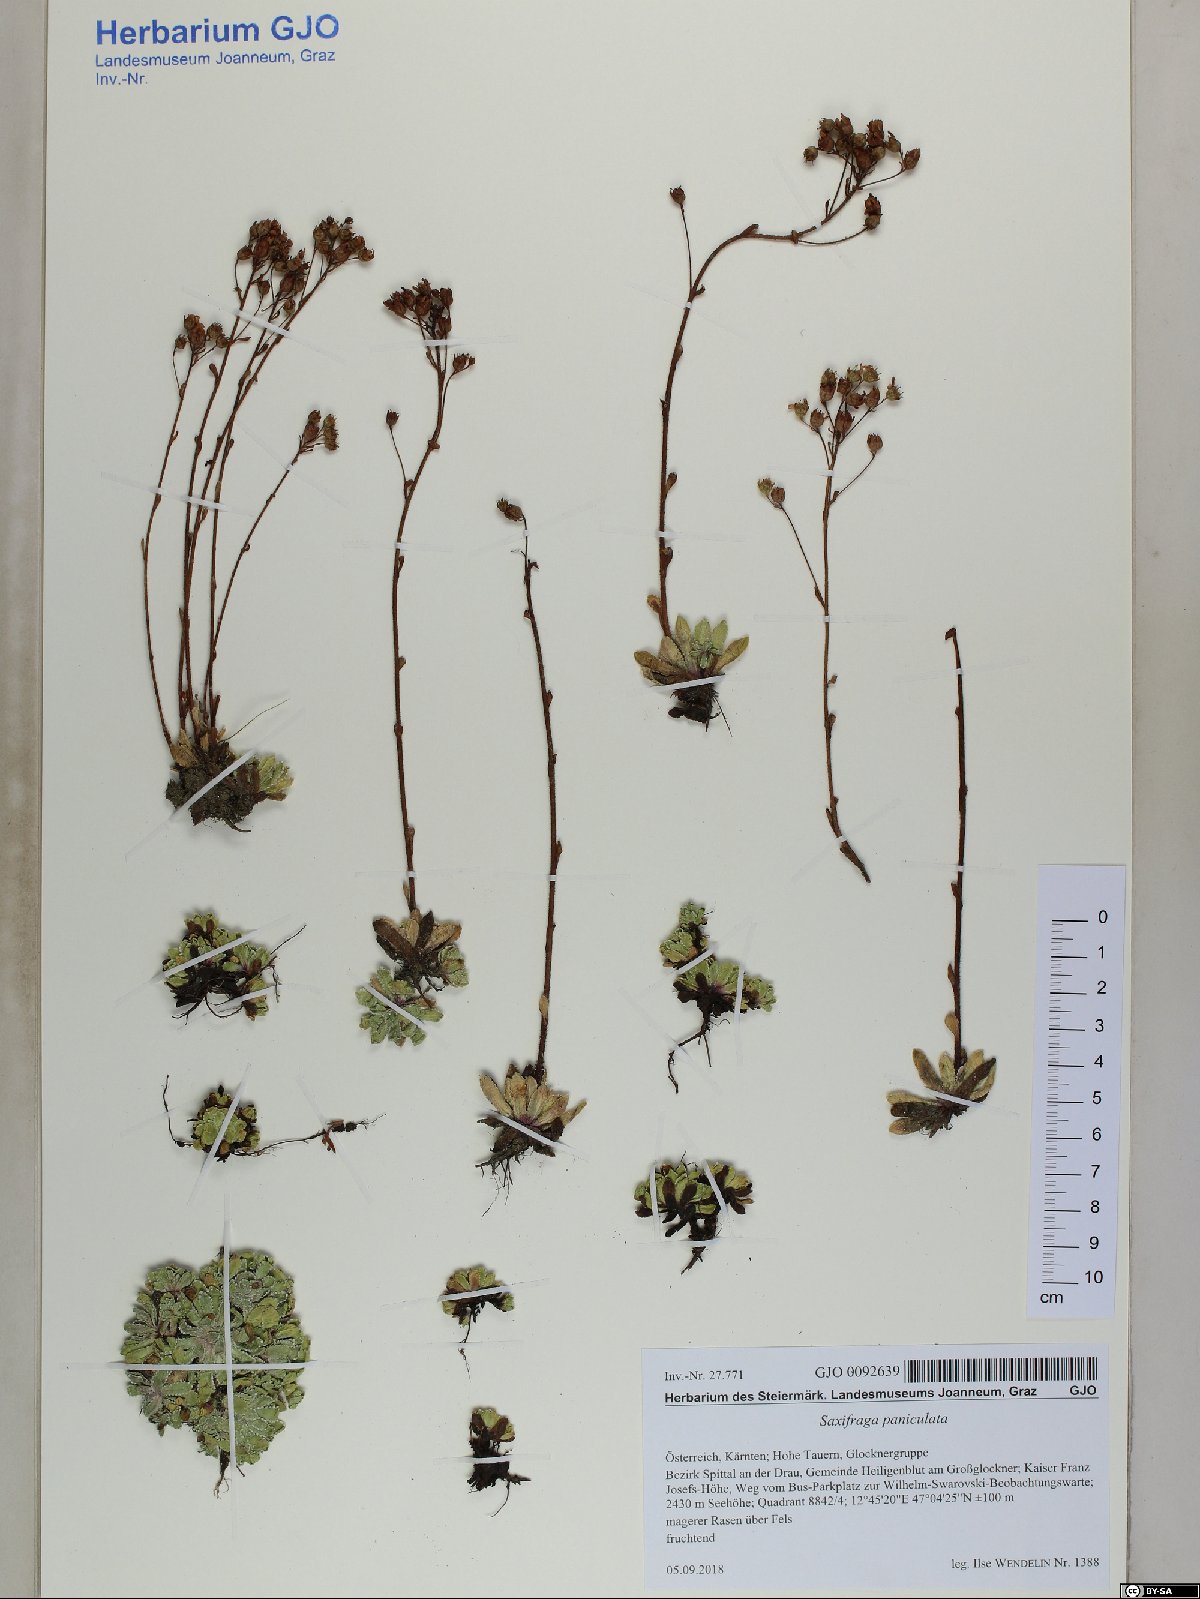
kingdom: Plantae
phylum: Tracheophyta
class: Magnoliopsida
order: Saxifragales
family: Saxifragaceae
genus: Saxifraga
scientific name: Saxifraga paniculata
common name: Livelong saxifrage
